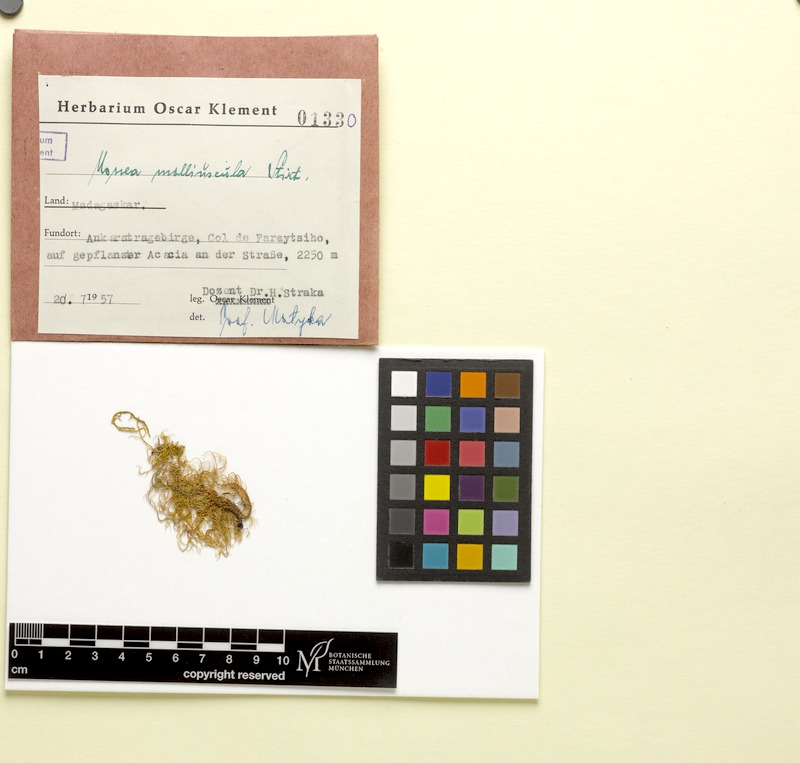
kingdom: Fungi
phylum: Ascomycota
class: Lecanoromycetes
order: Lecanorales
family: Parmeliaceae
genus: Usnea
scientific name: Usnea molliuscula
